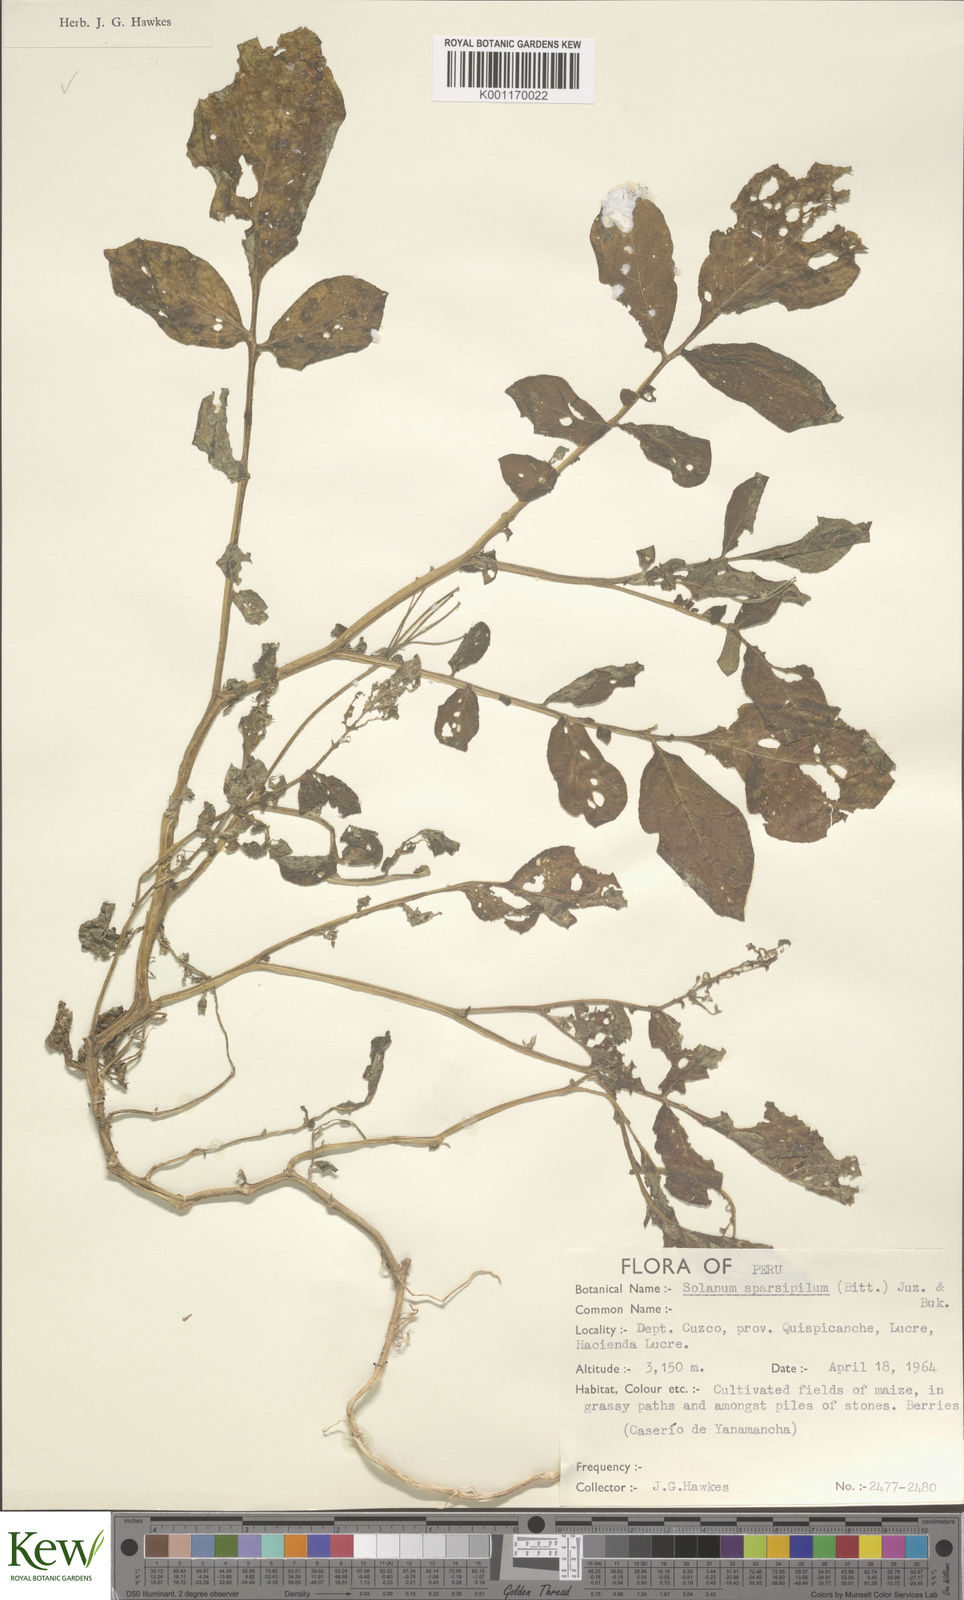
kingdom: Plantae
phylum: Tracheophyta
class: Magnoliopsida
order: Solanales
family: Solanaceae
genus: Solanum
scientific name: Solanum brevicaule
